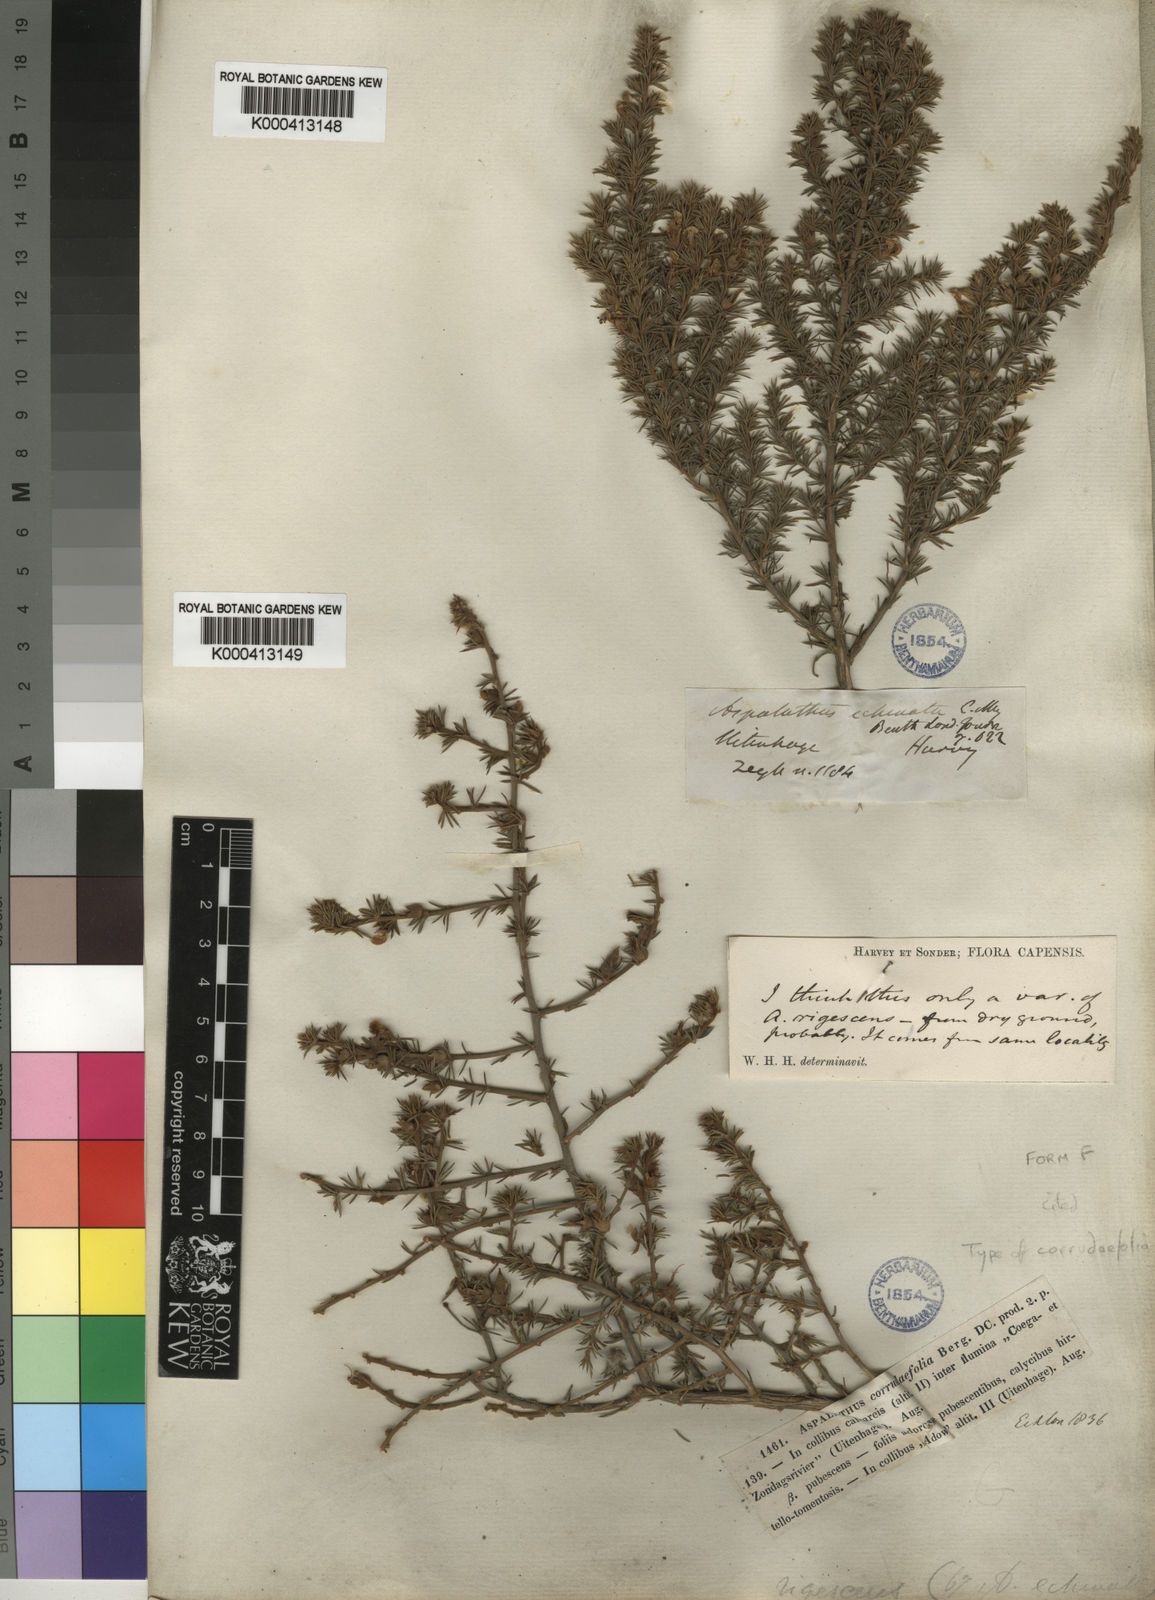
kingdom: Plantae
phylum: Tracheophyta
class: Magnoliopsida
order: Fabales
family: Fabaceae
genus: Aspalathus
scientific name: Aspalathus setacea
